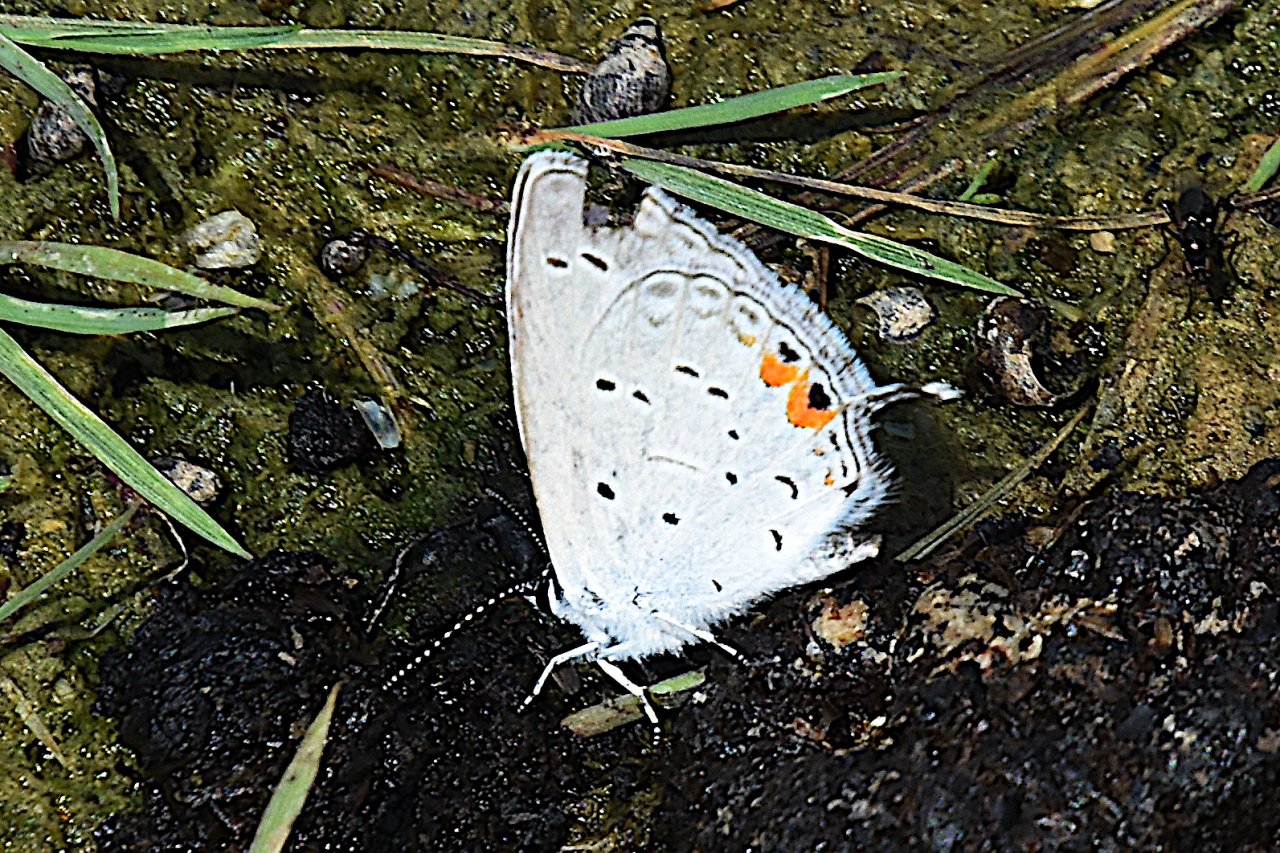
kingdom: Animalia
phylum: Arthropoda
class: Insecta
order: Lepidoptera
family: Lycaenidae
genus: Elkalyce
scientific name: Elkalyce comyntas
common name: Eastern Tailed-Blue
